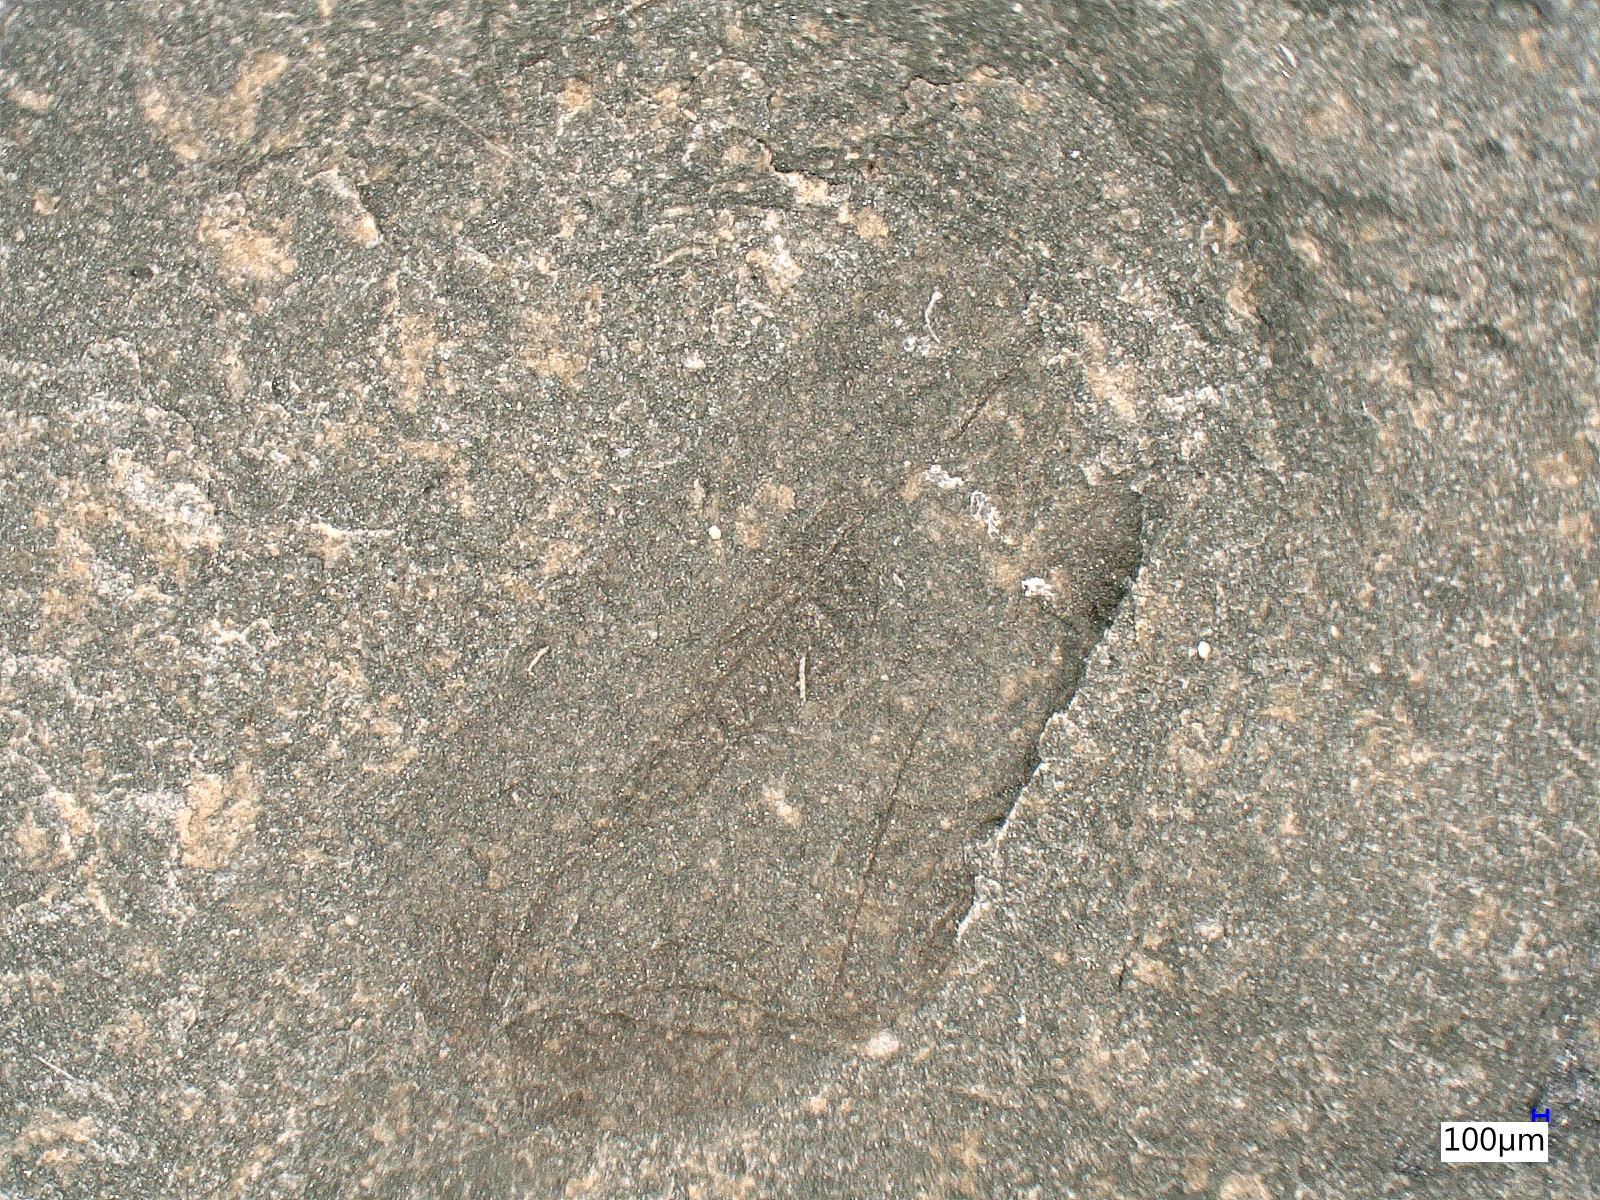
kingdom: Animalia
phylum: Arthropoda
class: Insecta
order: Orthoptera
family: Protogryllidae
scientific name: Protogryllidae
